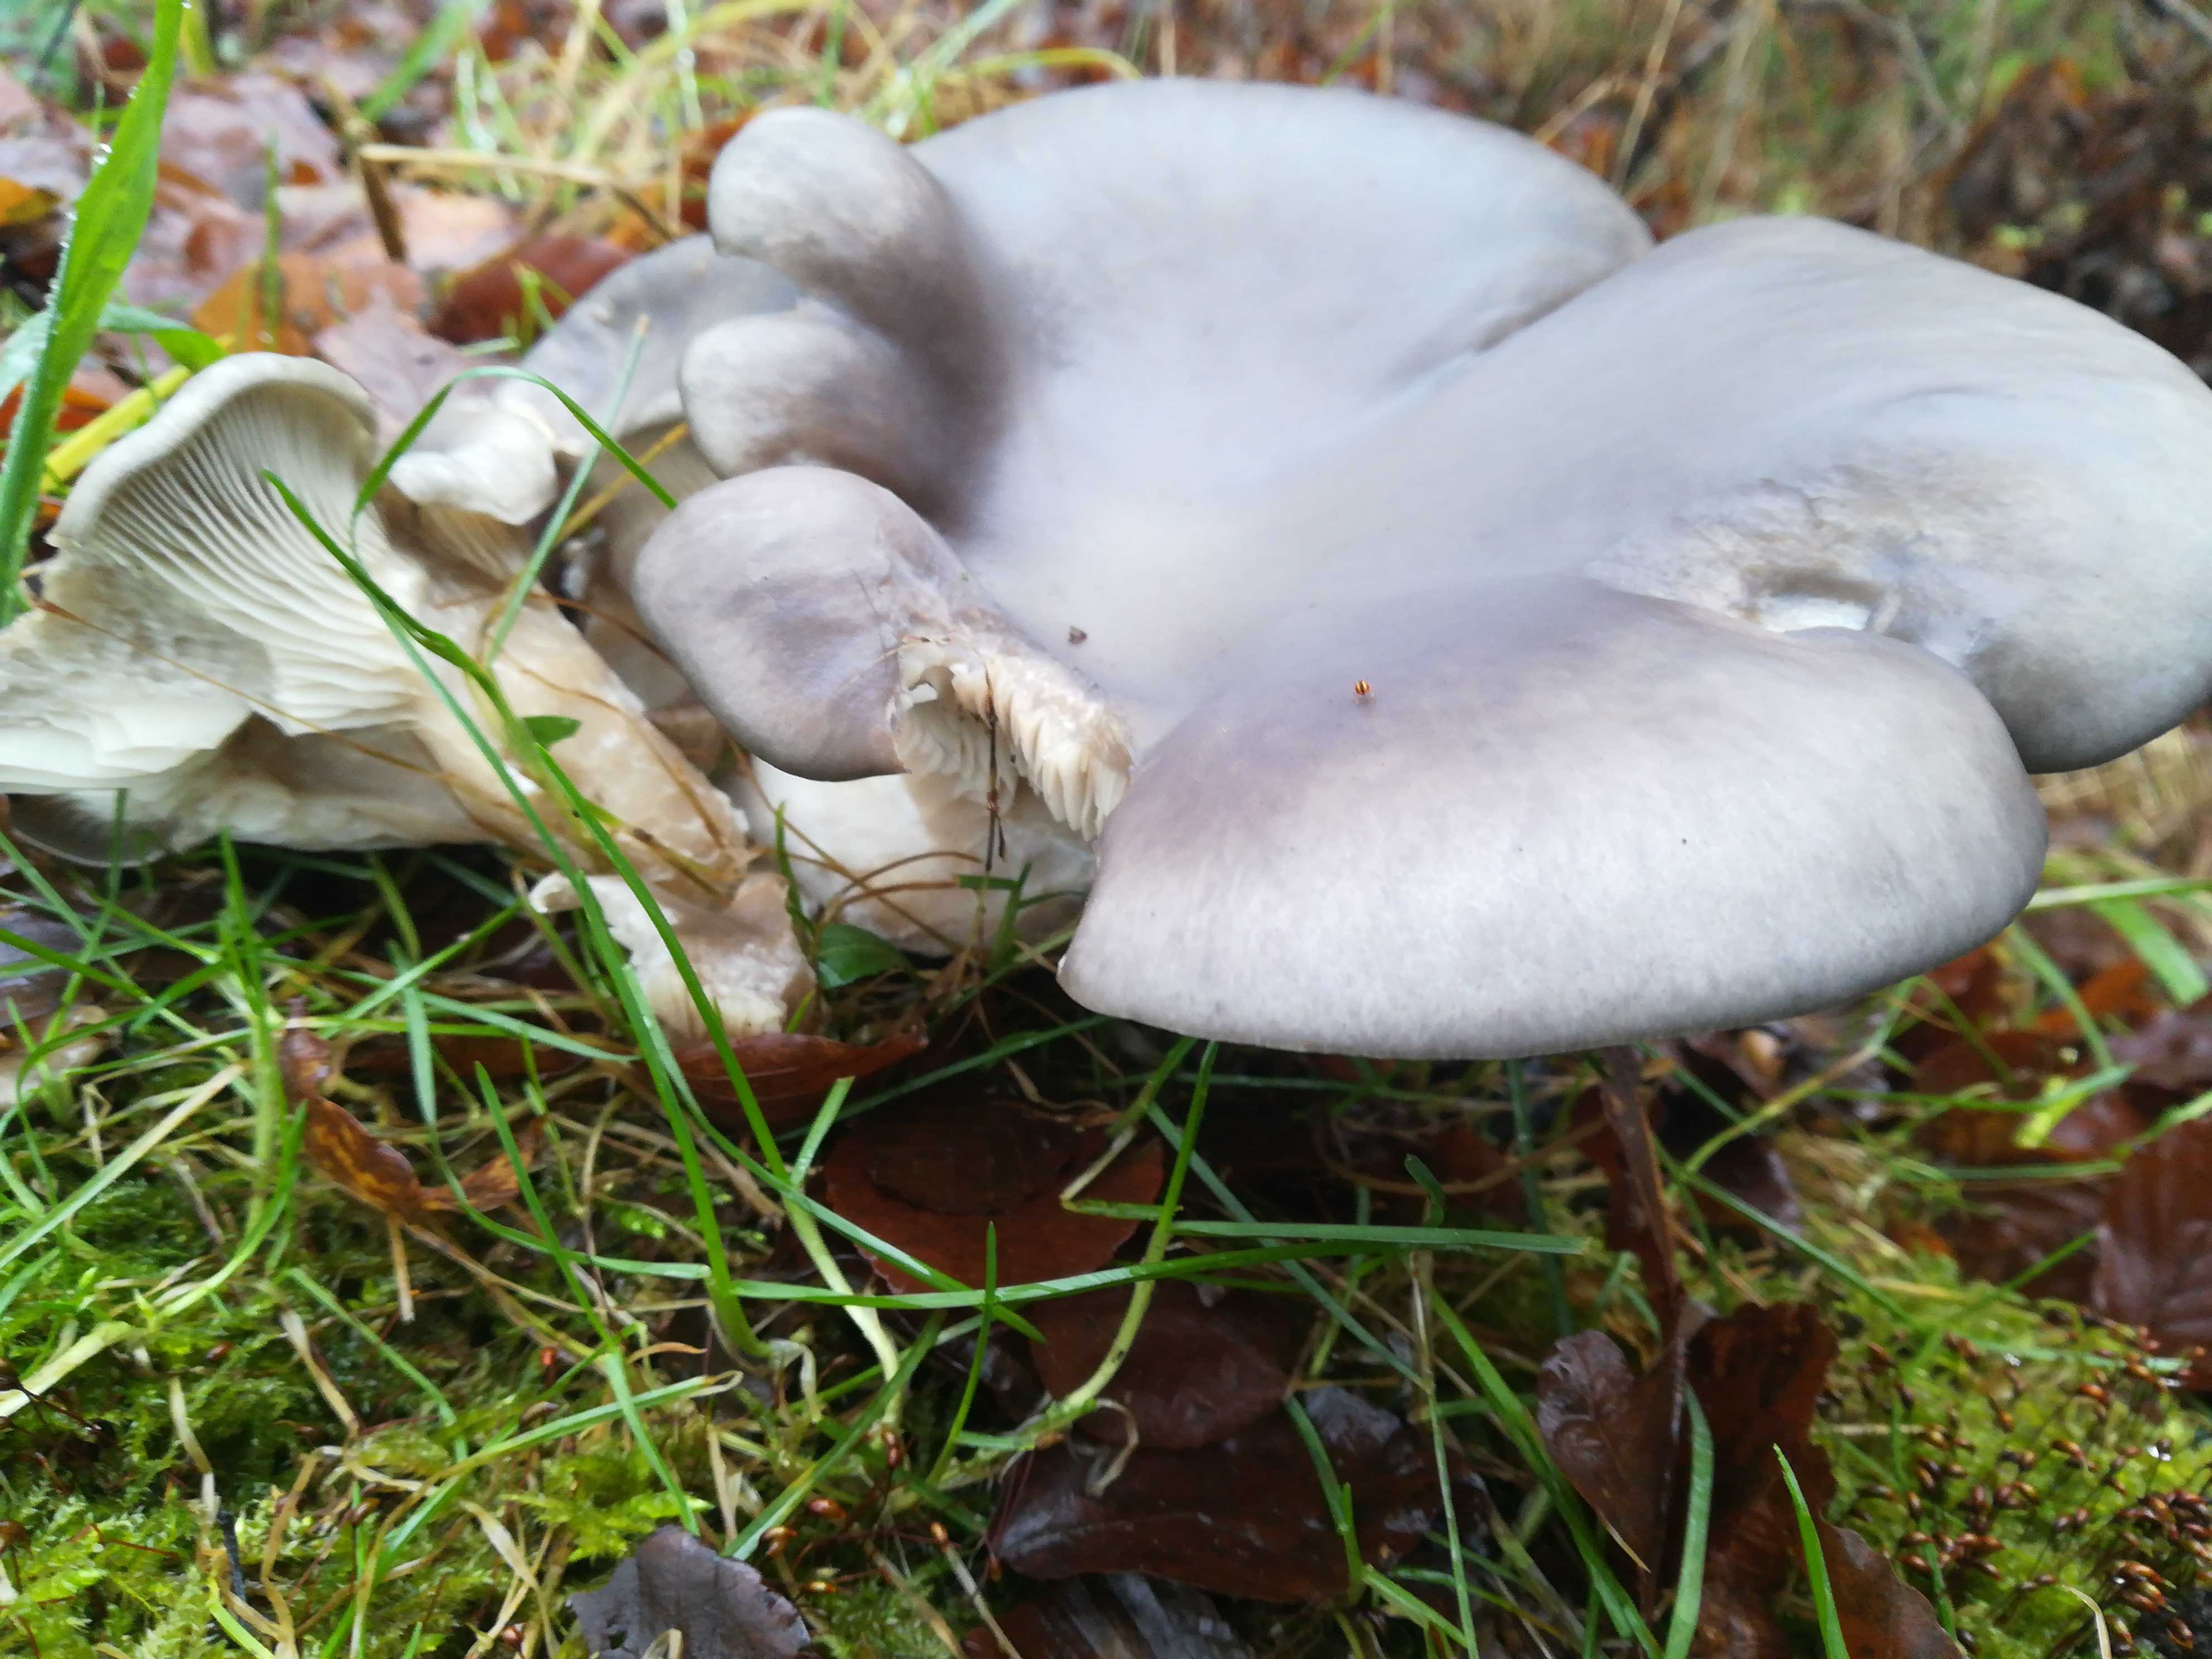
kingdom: Fungi
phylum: Basidiomycota
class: Agaricomycetes
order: Agaricales
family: Pleurotaceae
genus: Pleurotus
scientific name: Pleurotus ostreatus
